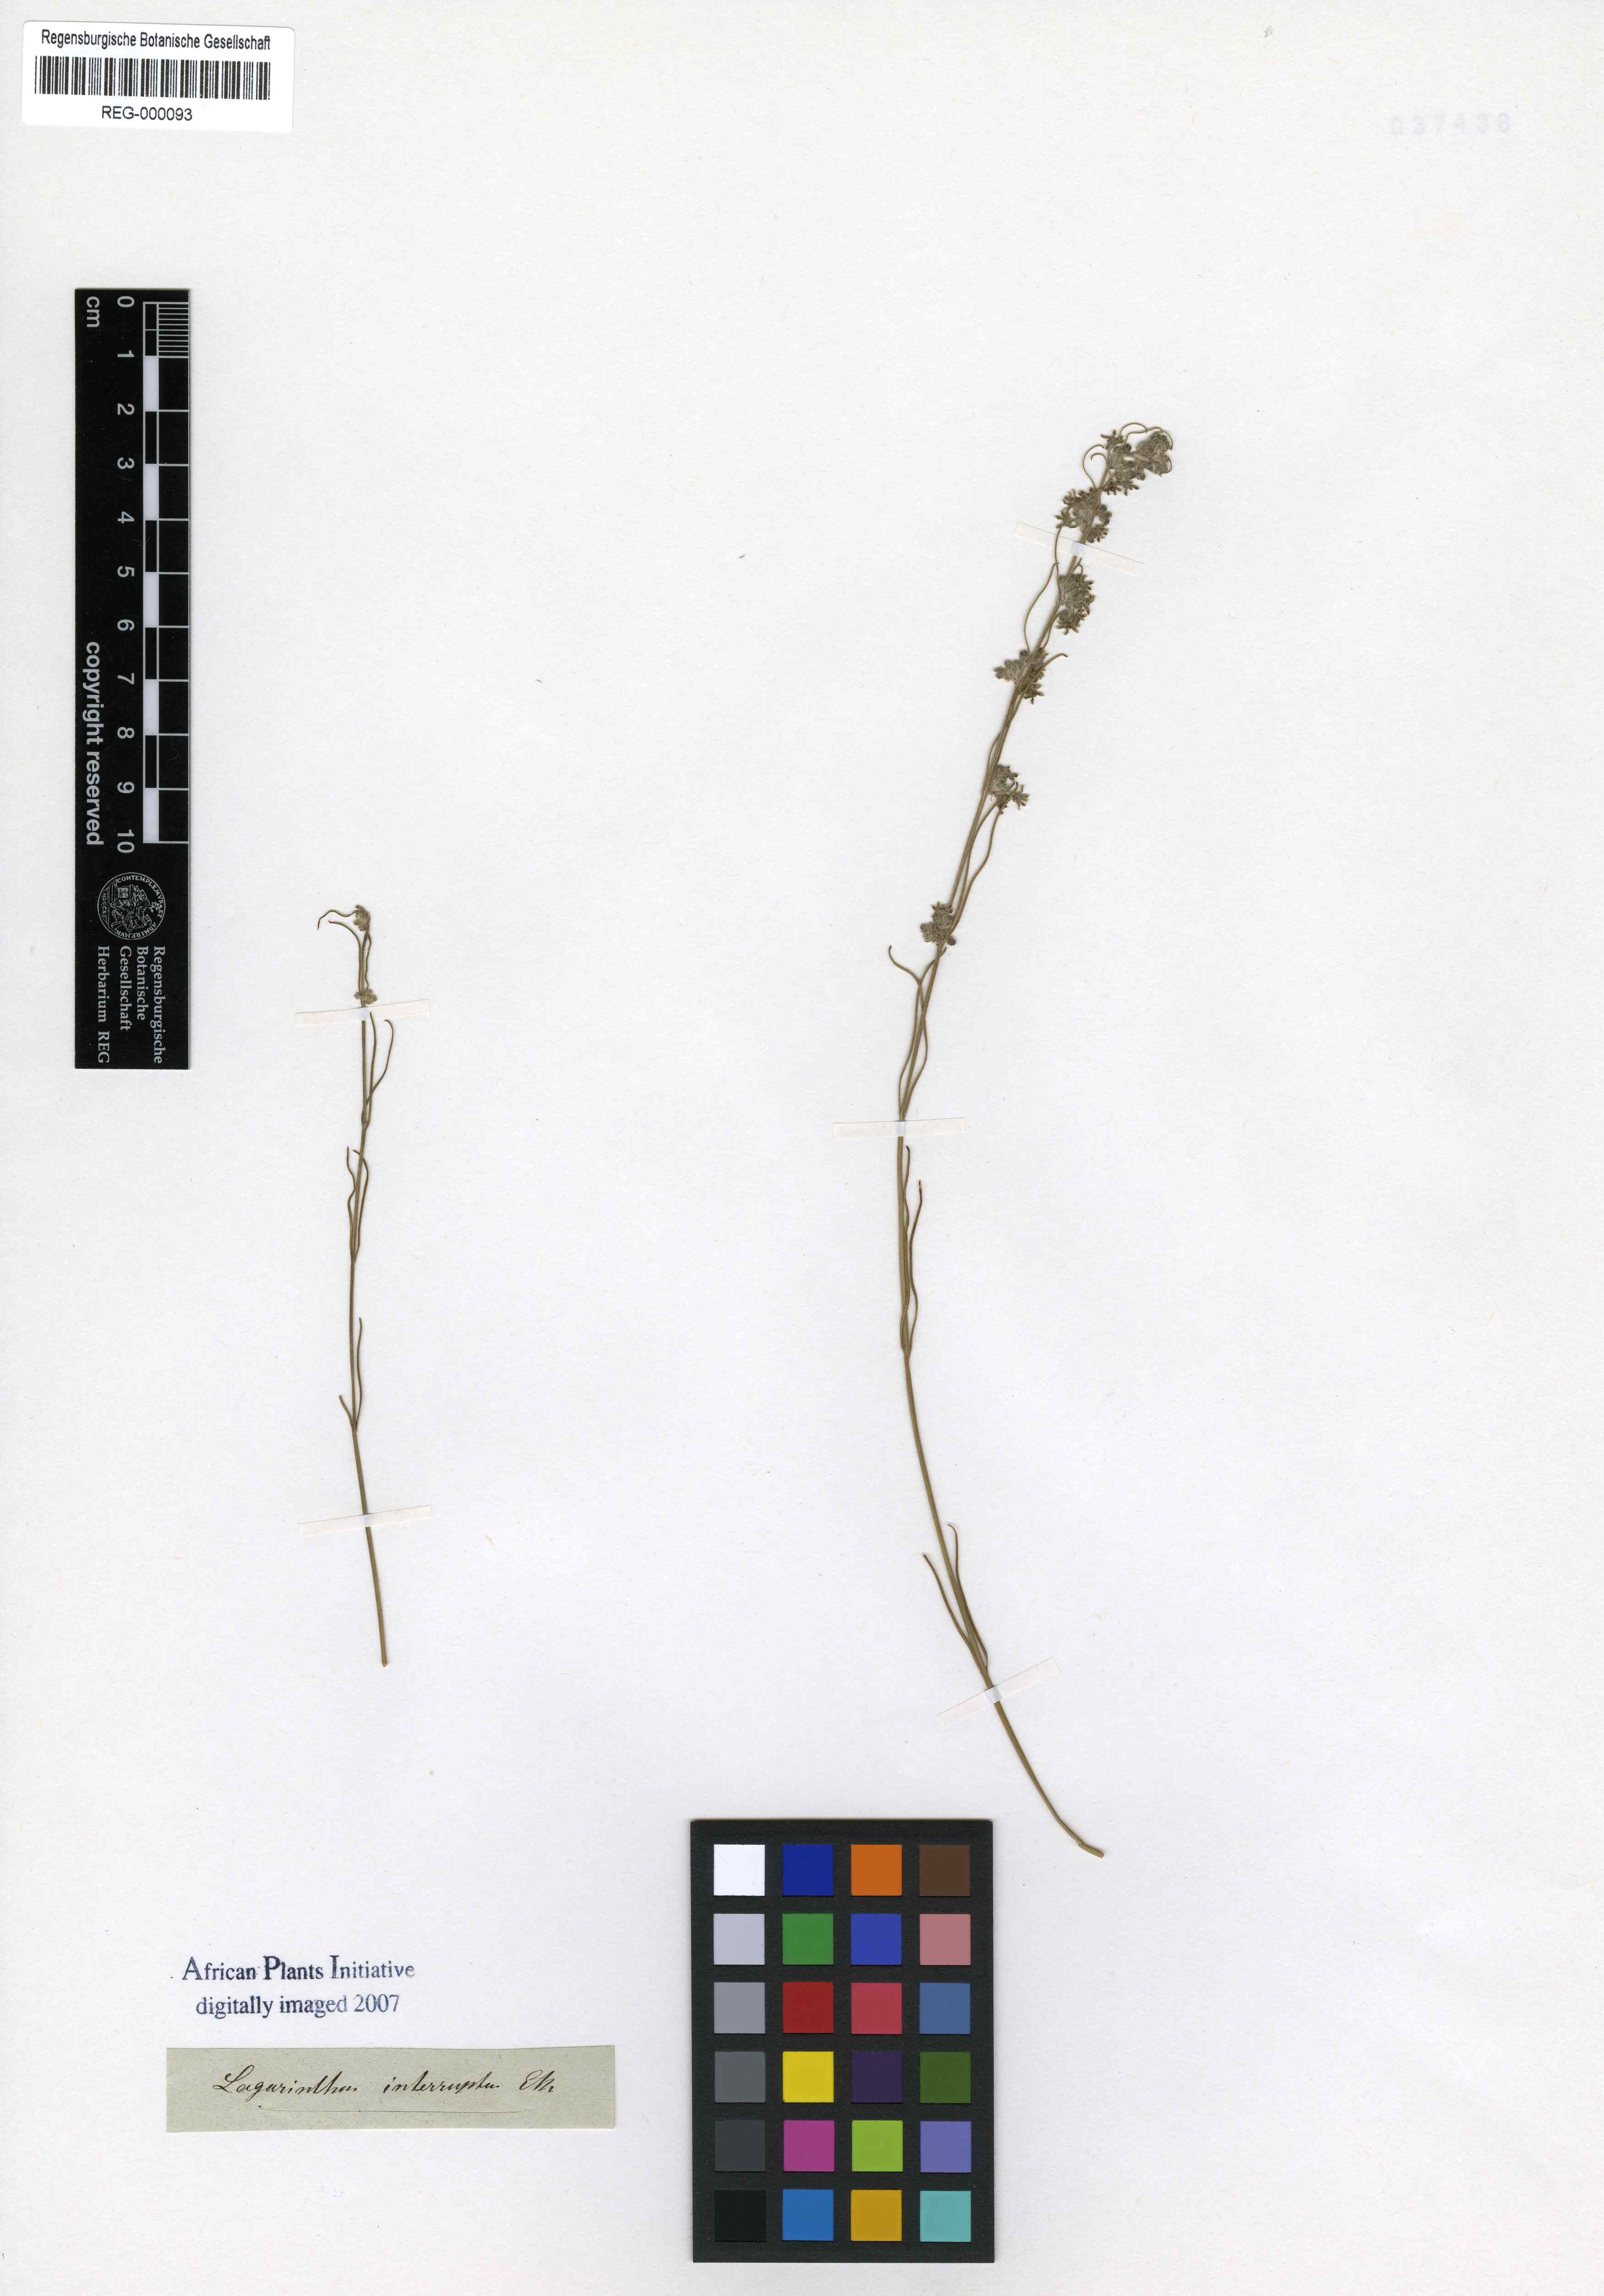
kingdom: Plantae
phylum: Tracheophyta
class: Magnoliopsida
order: Gentianales
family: Apocynaceae
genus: Aspidoglossum
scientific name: Aspidoglossum interruptum
